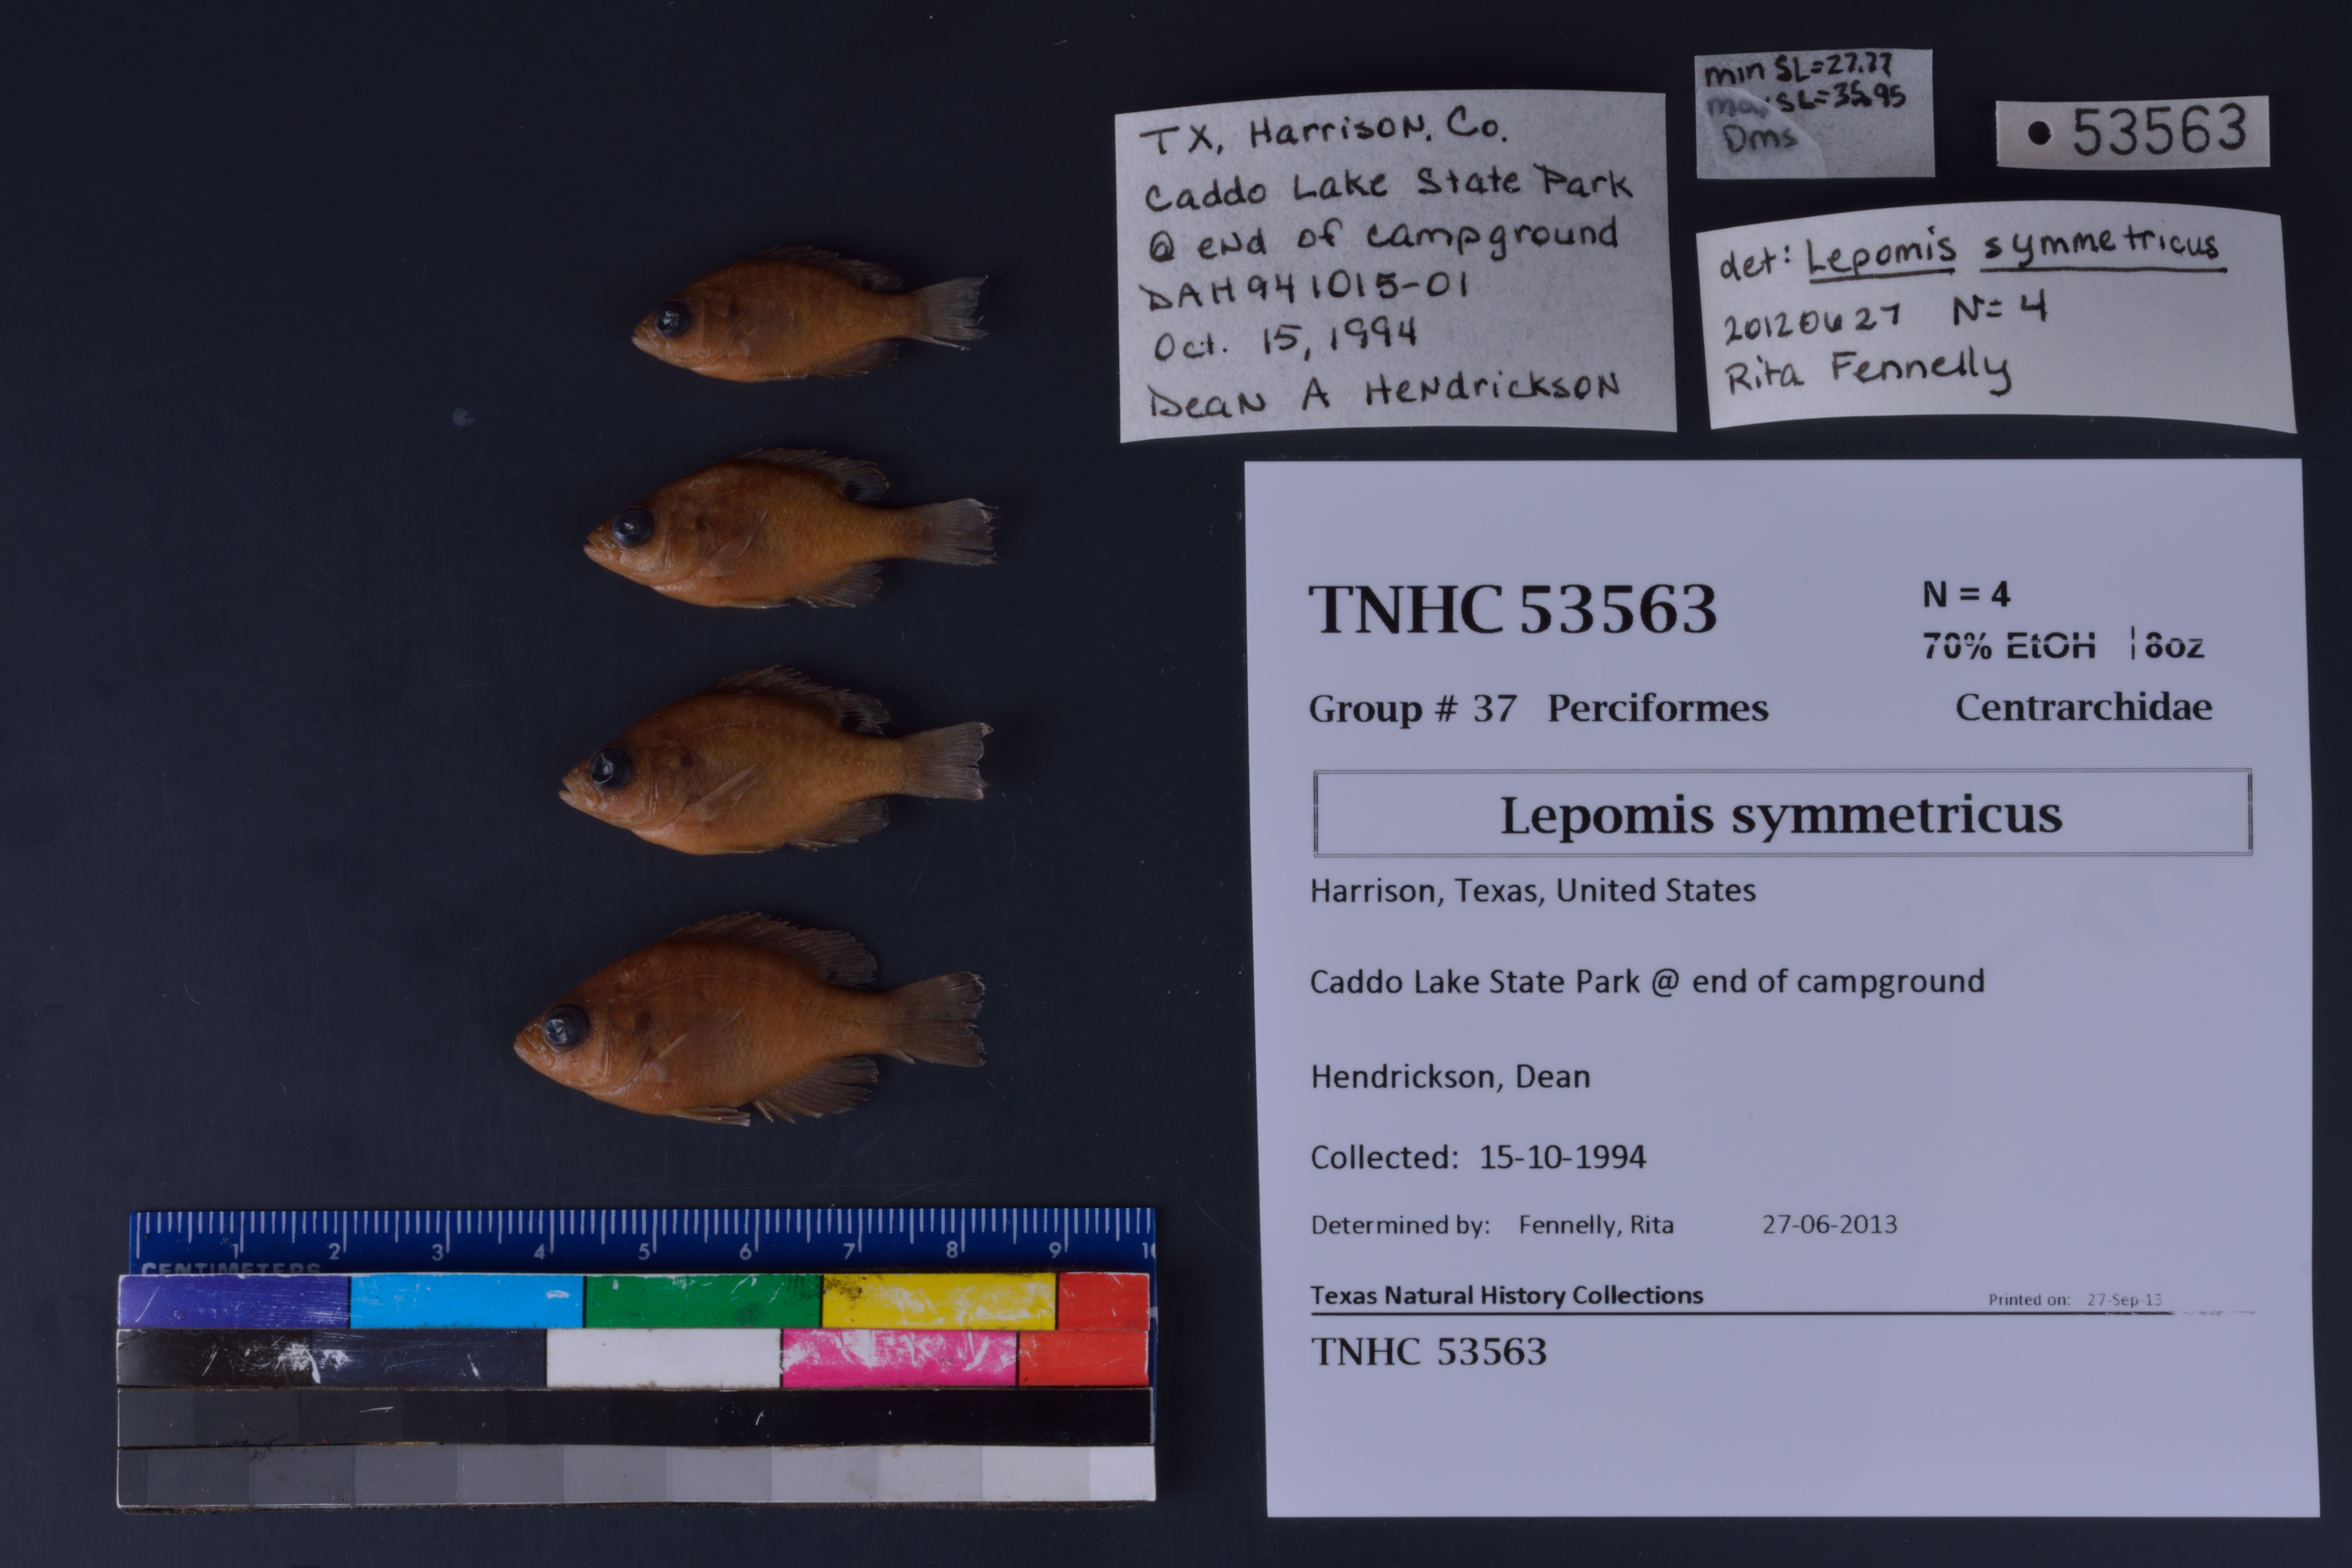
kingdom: Animalia
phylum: Chordata
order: Perciformes
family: Centrarchidae
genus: Lepomis
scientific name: Lepomis symmetricus
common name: Bantam sunfish
